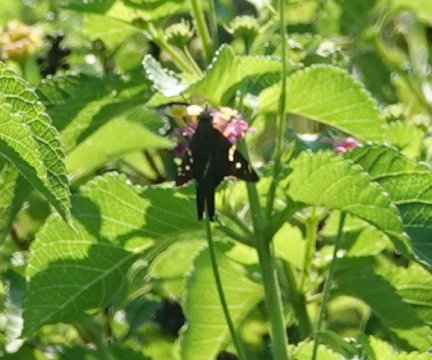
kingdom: Animalia
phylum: Arthropoda
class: Insecta
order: Lepidoptera
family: Hesperiidae
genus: Urbanus
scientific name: Urbanus proteus
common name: Long-tailed Skipper
